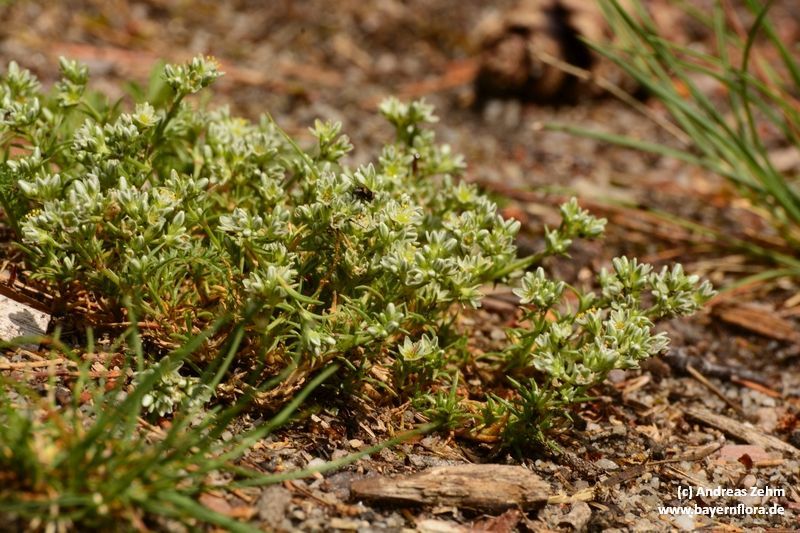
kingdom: Plantae
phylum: Tracheophyta
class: Magnoliopsida
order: Caryophyllales
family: Caryophyllaceae
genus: Scleranthus
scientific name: Scleranthus perennis
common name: Perennial knawel
